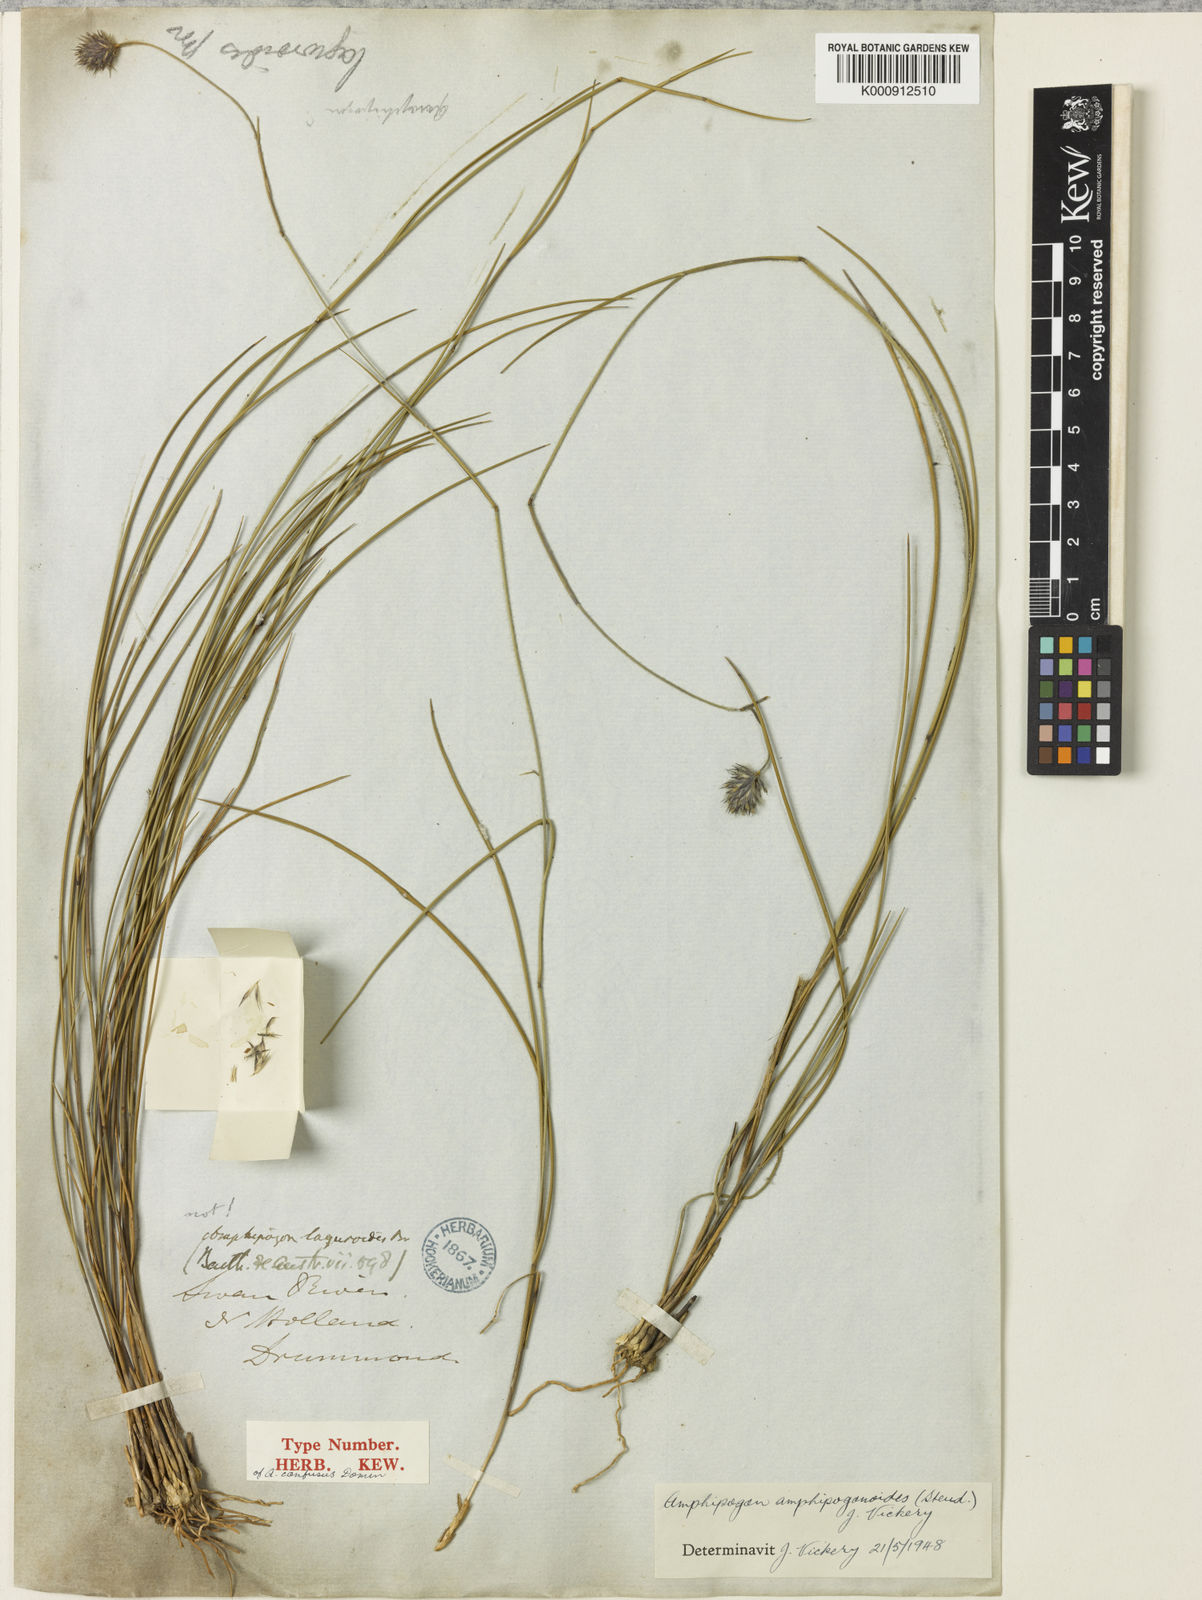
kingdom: Plantae
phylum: Tracheophyta
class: Liliopsida
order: Poales
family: Poaceae
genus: Amphipogon
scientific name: Amphipogon amphipogonoides
